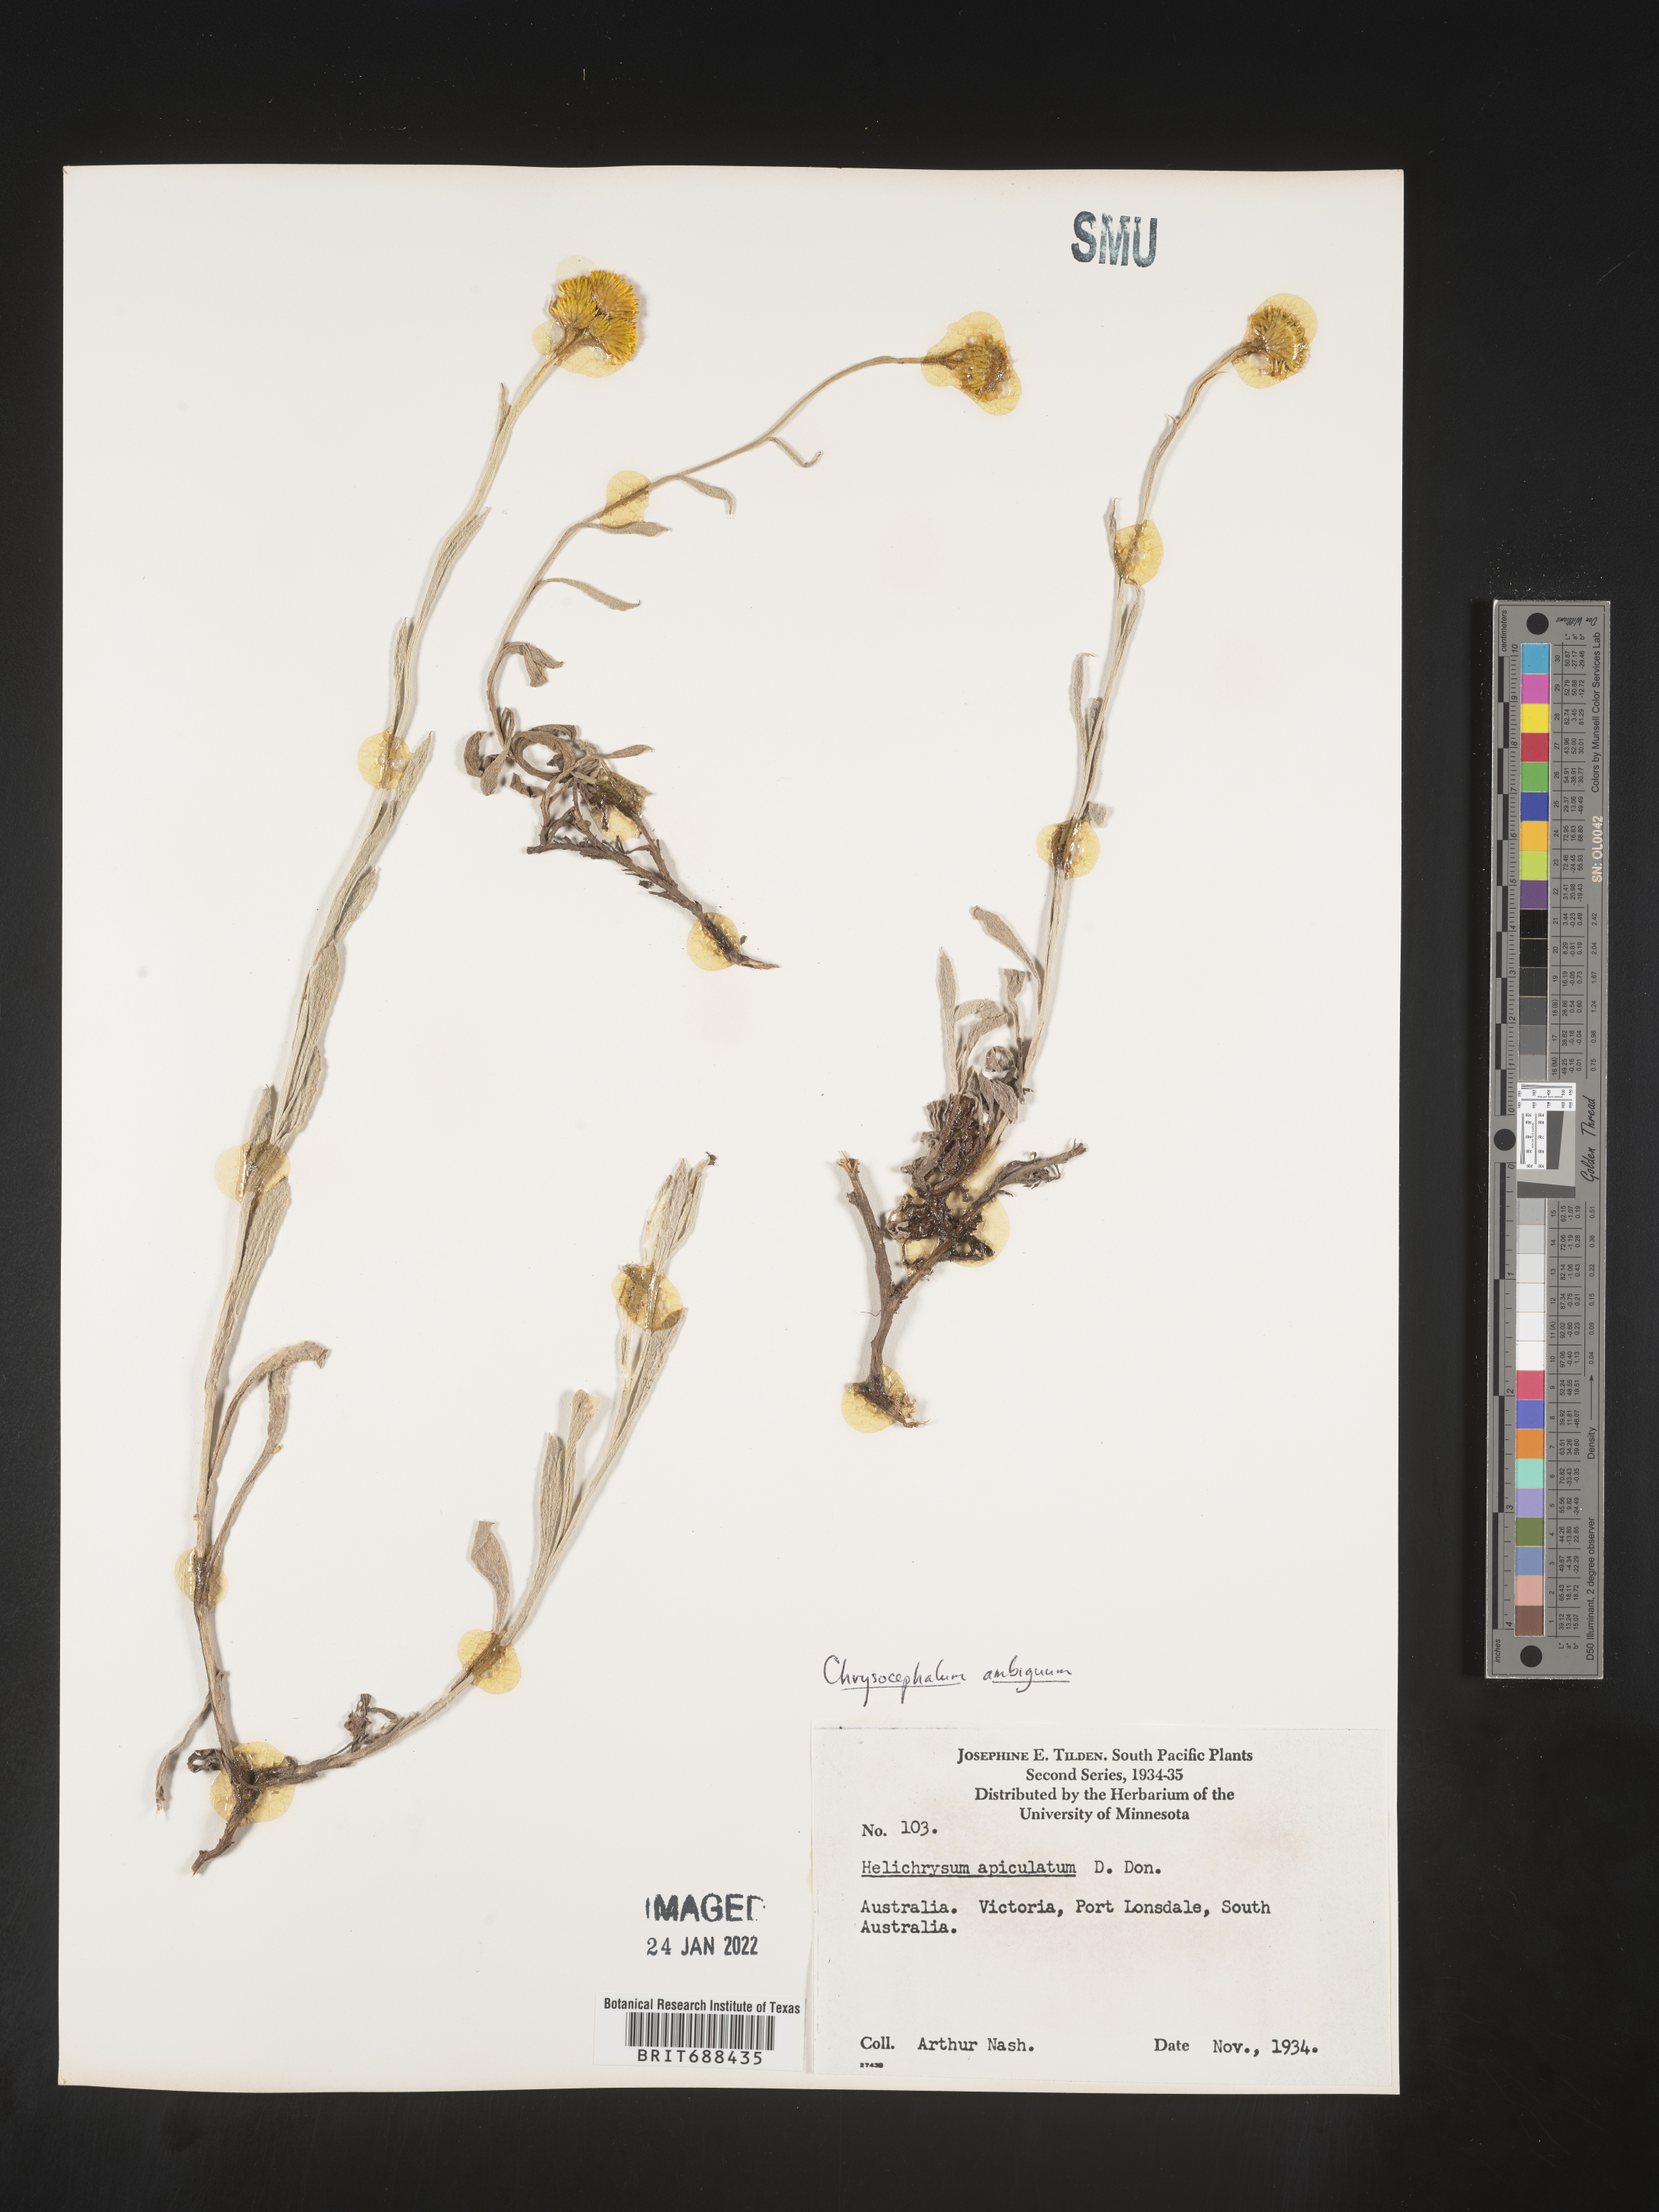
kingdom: Plantae
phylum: Tracheophyta
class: Magnoliopsida
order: Asterales
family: Asteraceae
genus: Chrysocephalum
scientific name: Chrysocephalum
